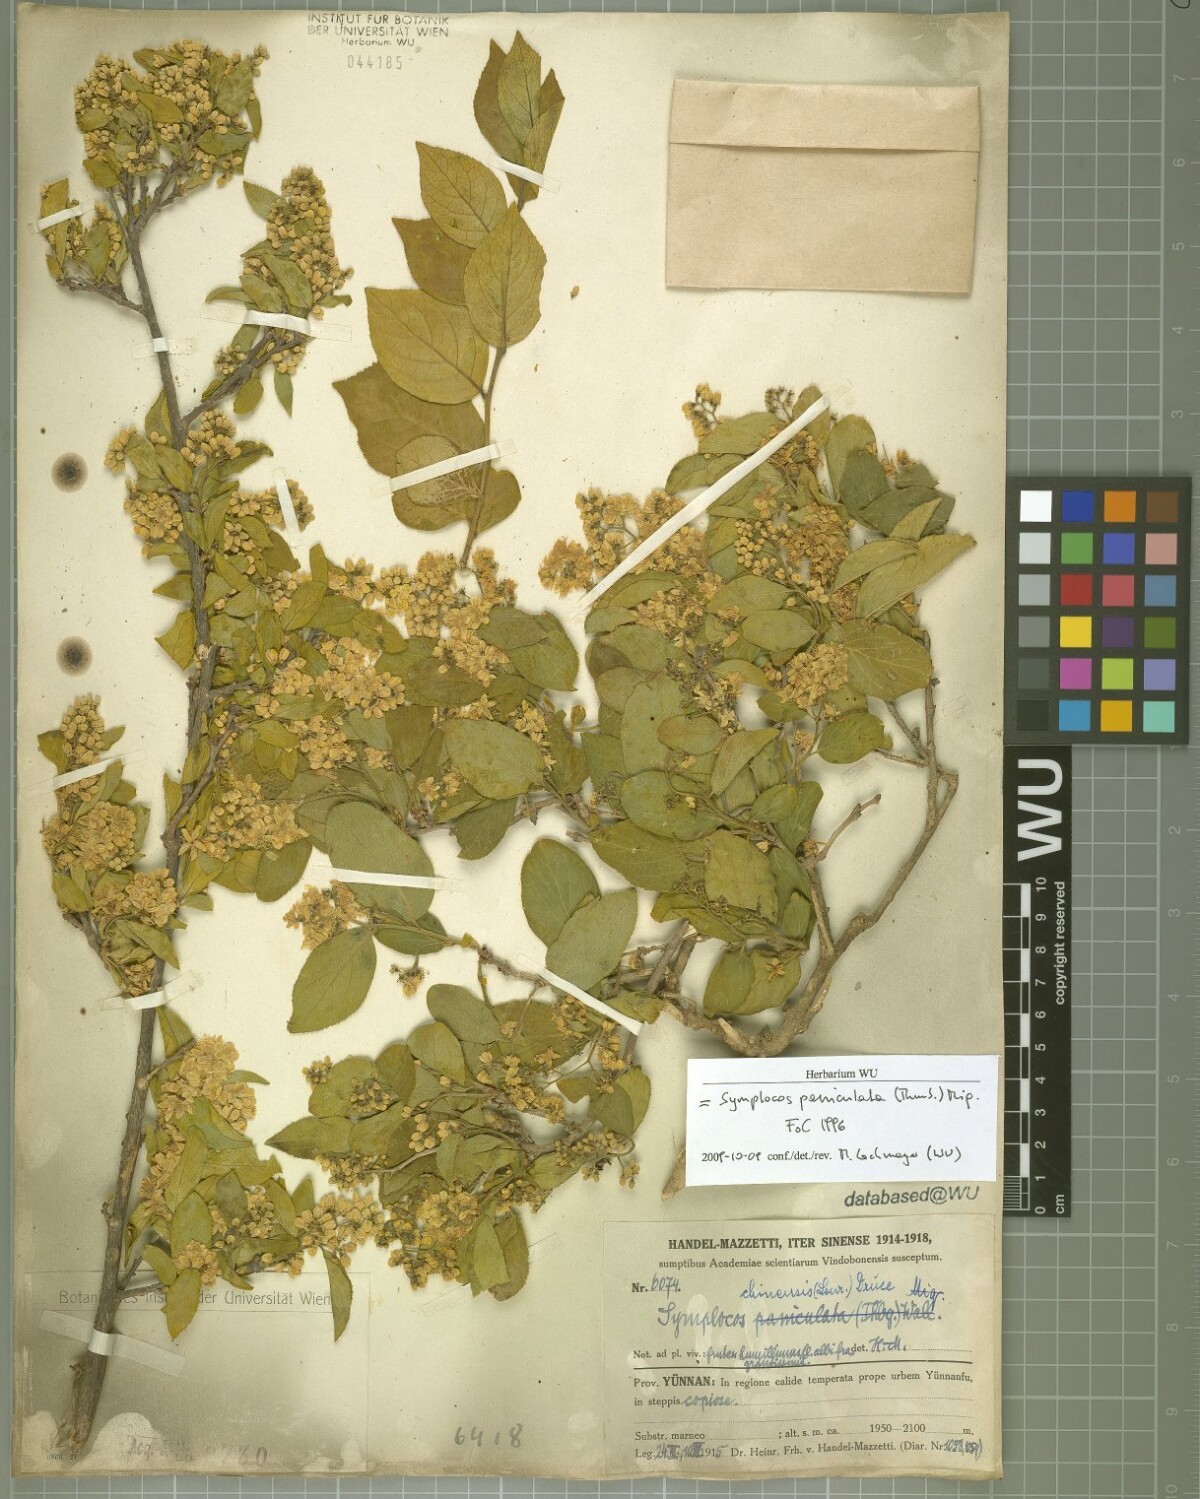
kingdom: Plantae
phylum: Tracheophyta
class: Magnoliopsida
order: Ericales
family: Symplocaceae
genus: Symplocos
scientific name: Symplocos paniculata
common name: Sapphire-berry
